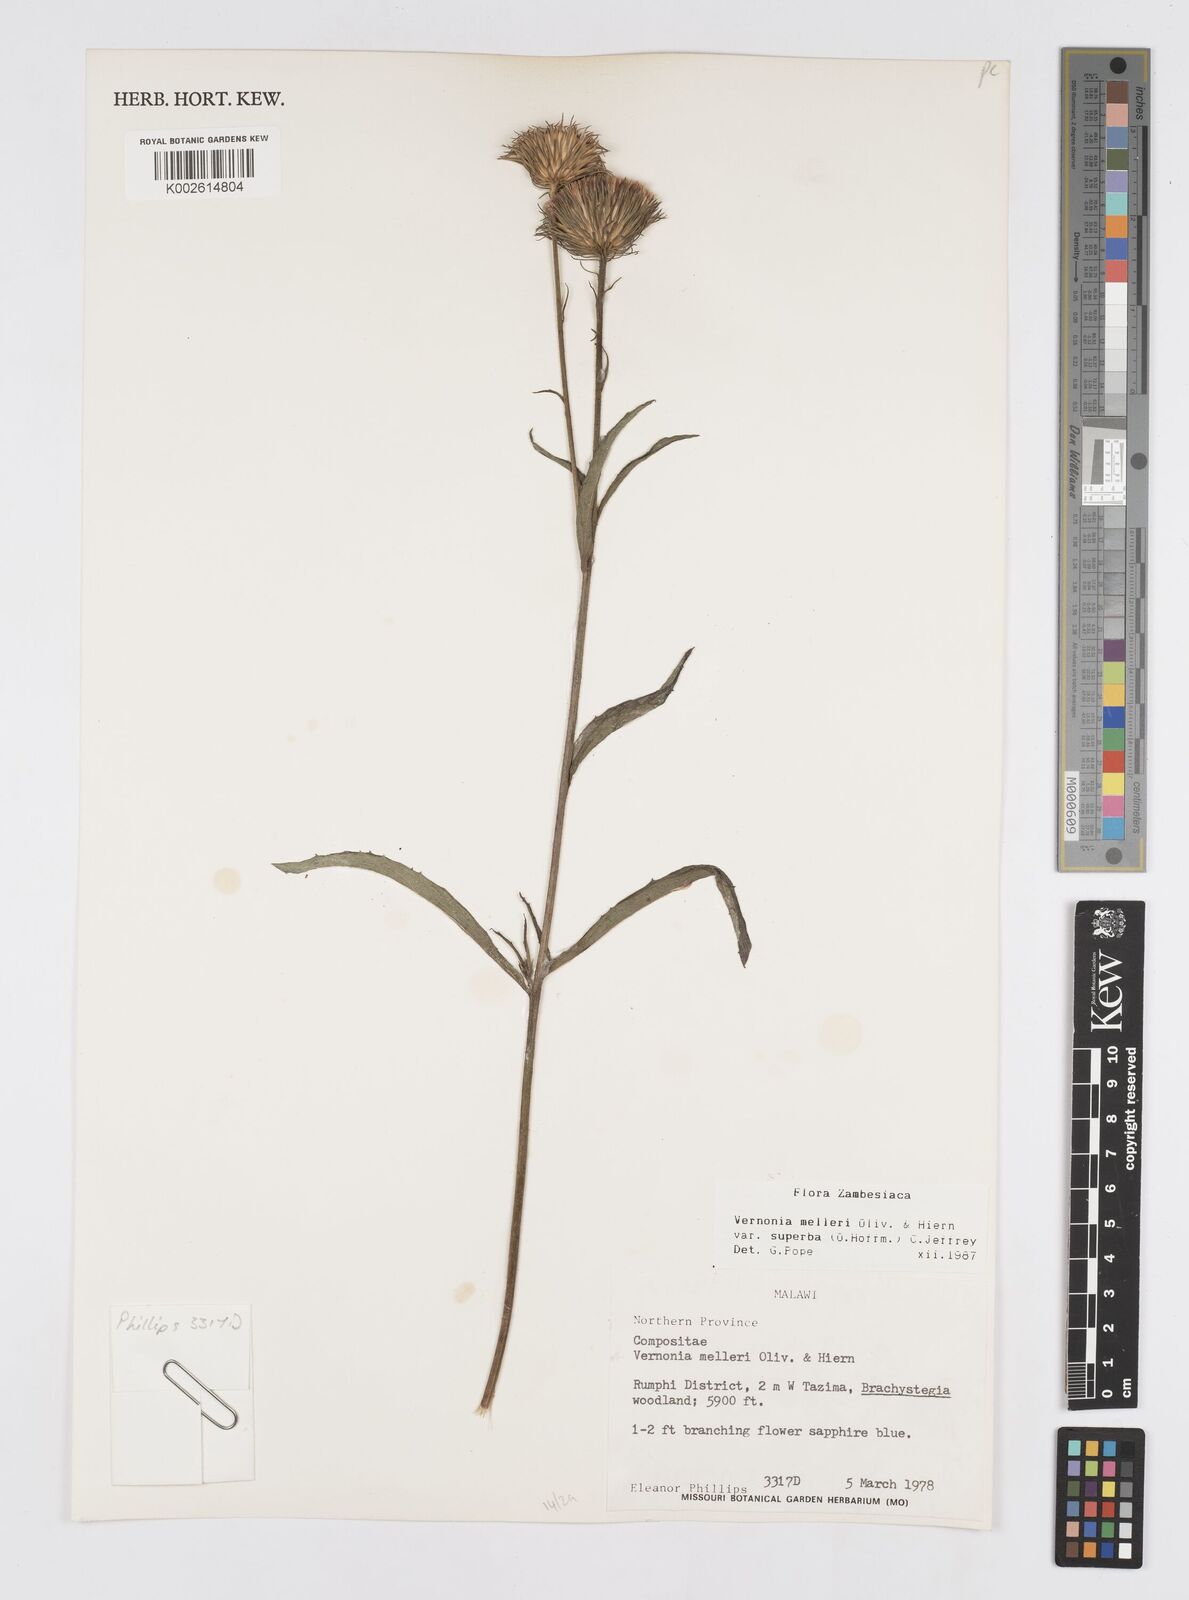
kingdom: Plantae
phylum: Tracheophyta
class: Magnoliopsida
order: Asterales
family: Asteraceae
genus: Linzia
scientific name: Linzia melleri
